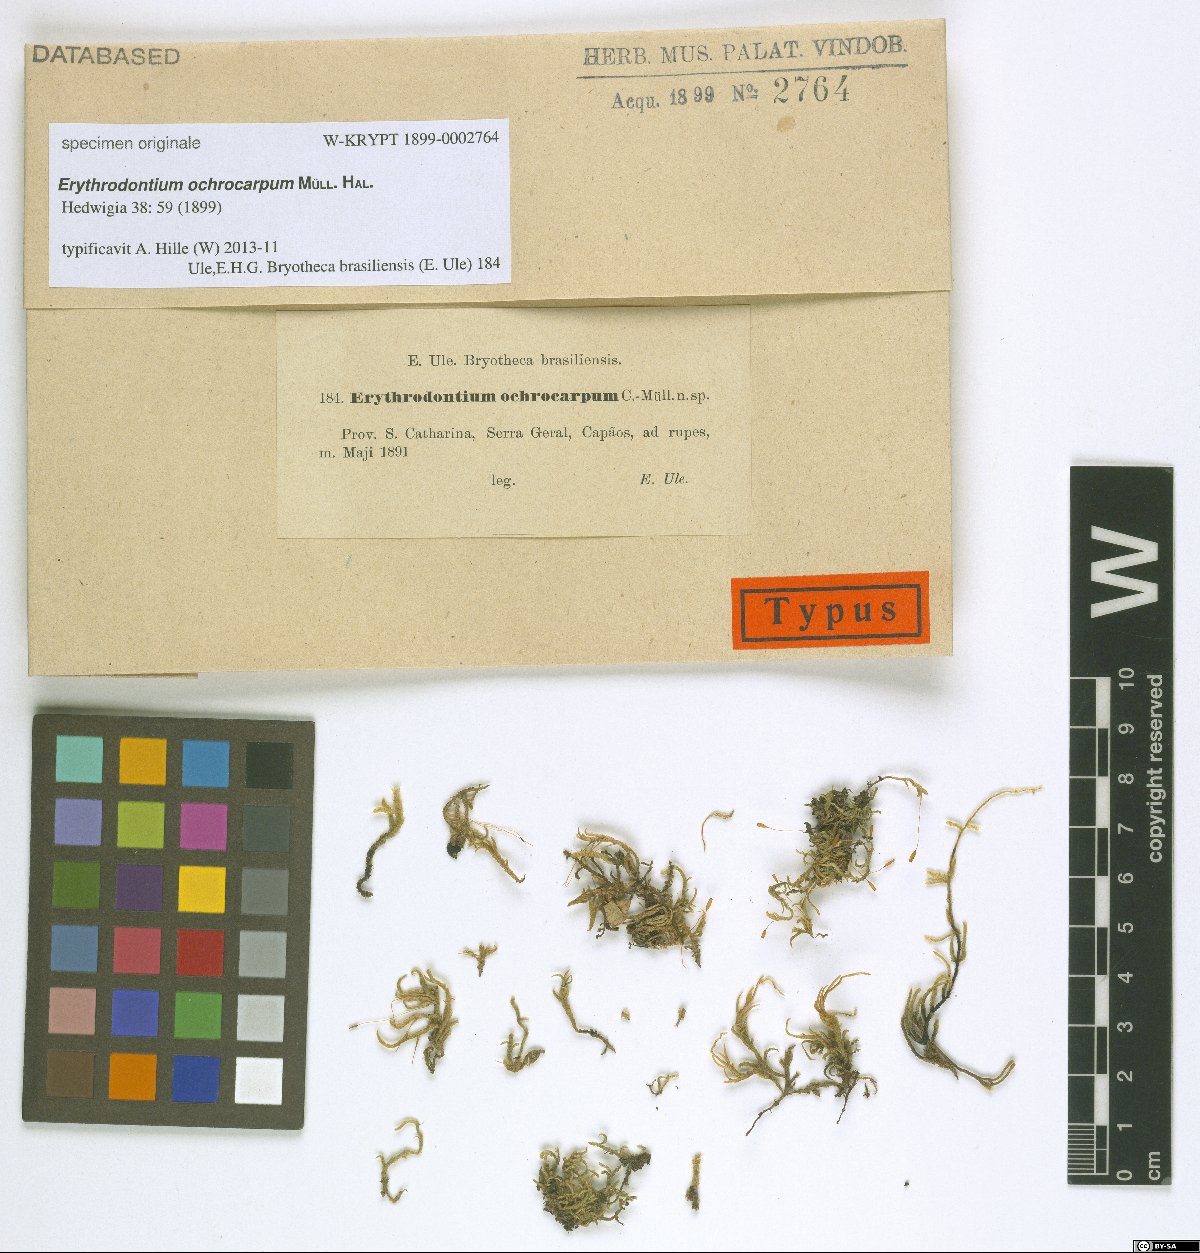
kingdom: Plantae
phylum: Bryophyta
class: Bryopsida
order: Hypnales
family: Entodontaceae
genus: Erythrodontium
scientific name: Erythrodontium
